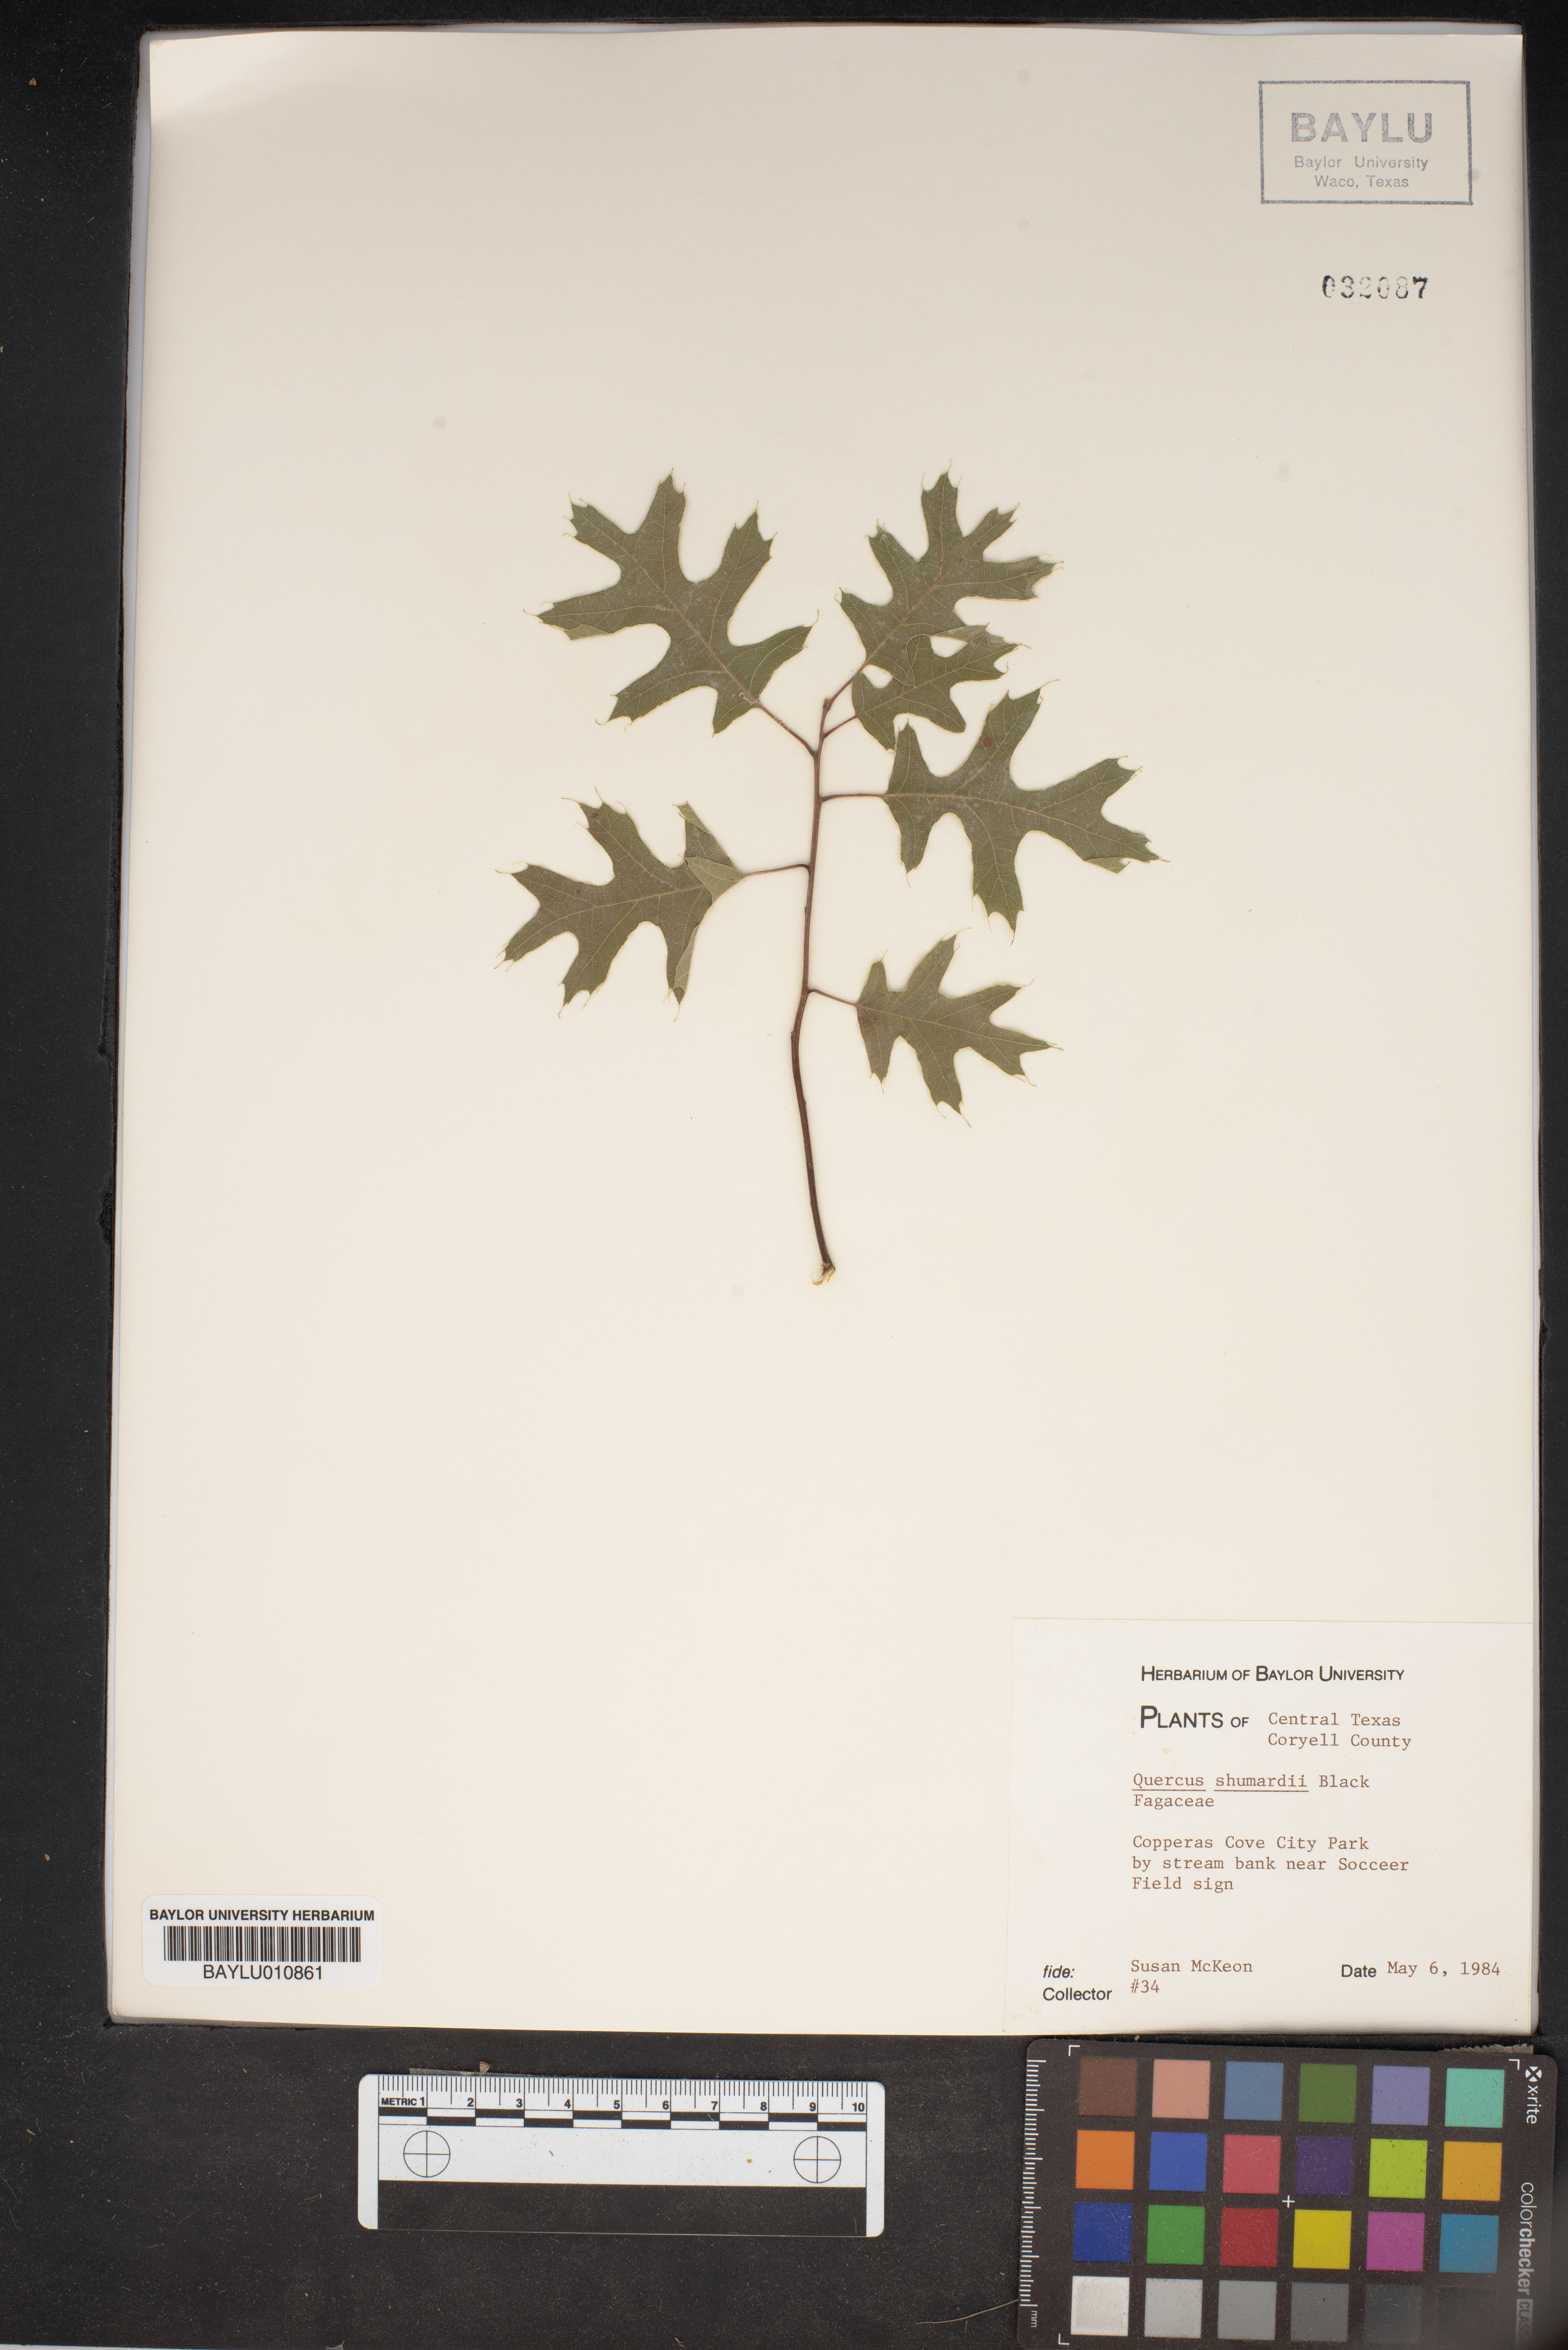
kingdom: Plantae
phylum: Tracheophyta
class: Magnoliopsida
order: Fagales
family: Fagaceae
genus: Quercus
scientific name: Quercus shumardii
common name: Shumard oak
